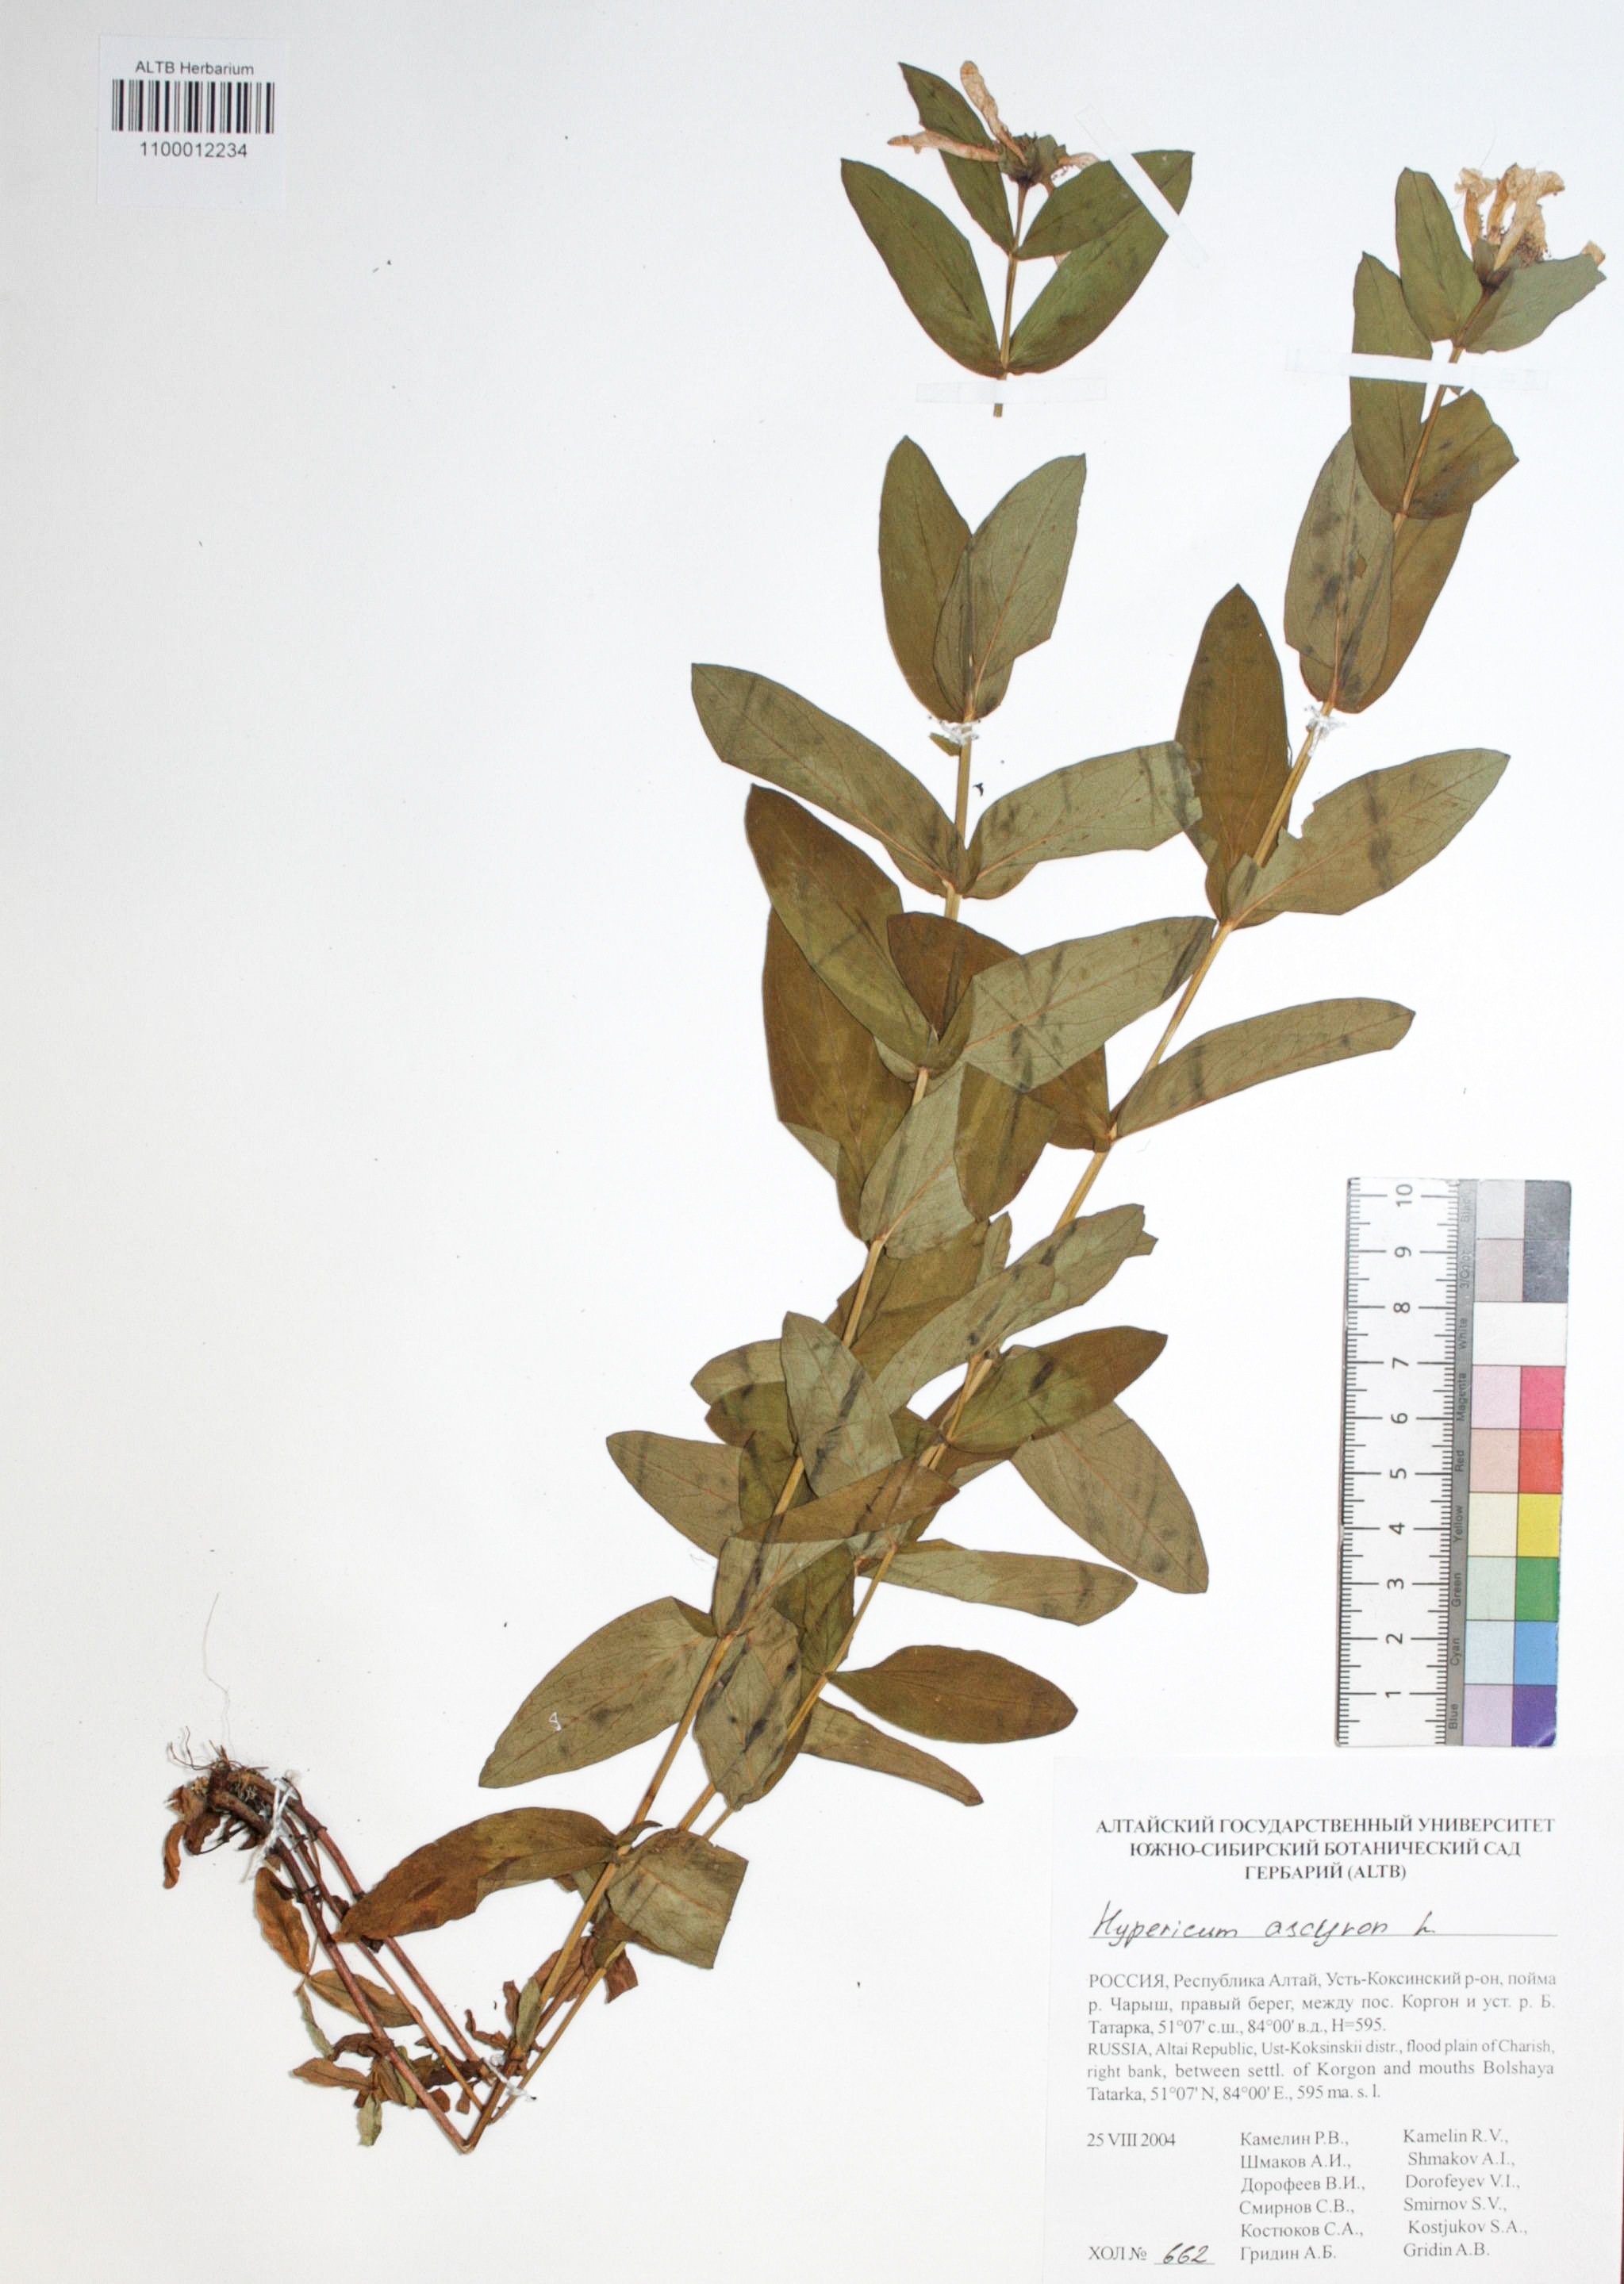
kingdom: Plantae
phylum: Tracheophyta
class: Magnoliopsida
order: Malpighiales
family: Hypericaceae
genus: Hypericum
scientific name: Hypericum ascyron
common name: Giant st. john's-wort
